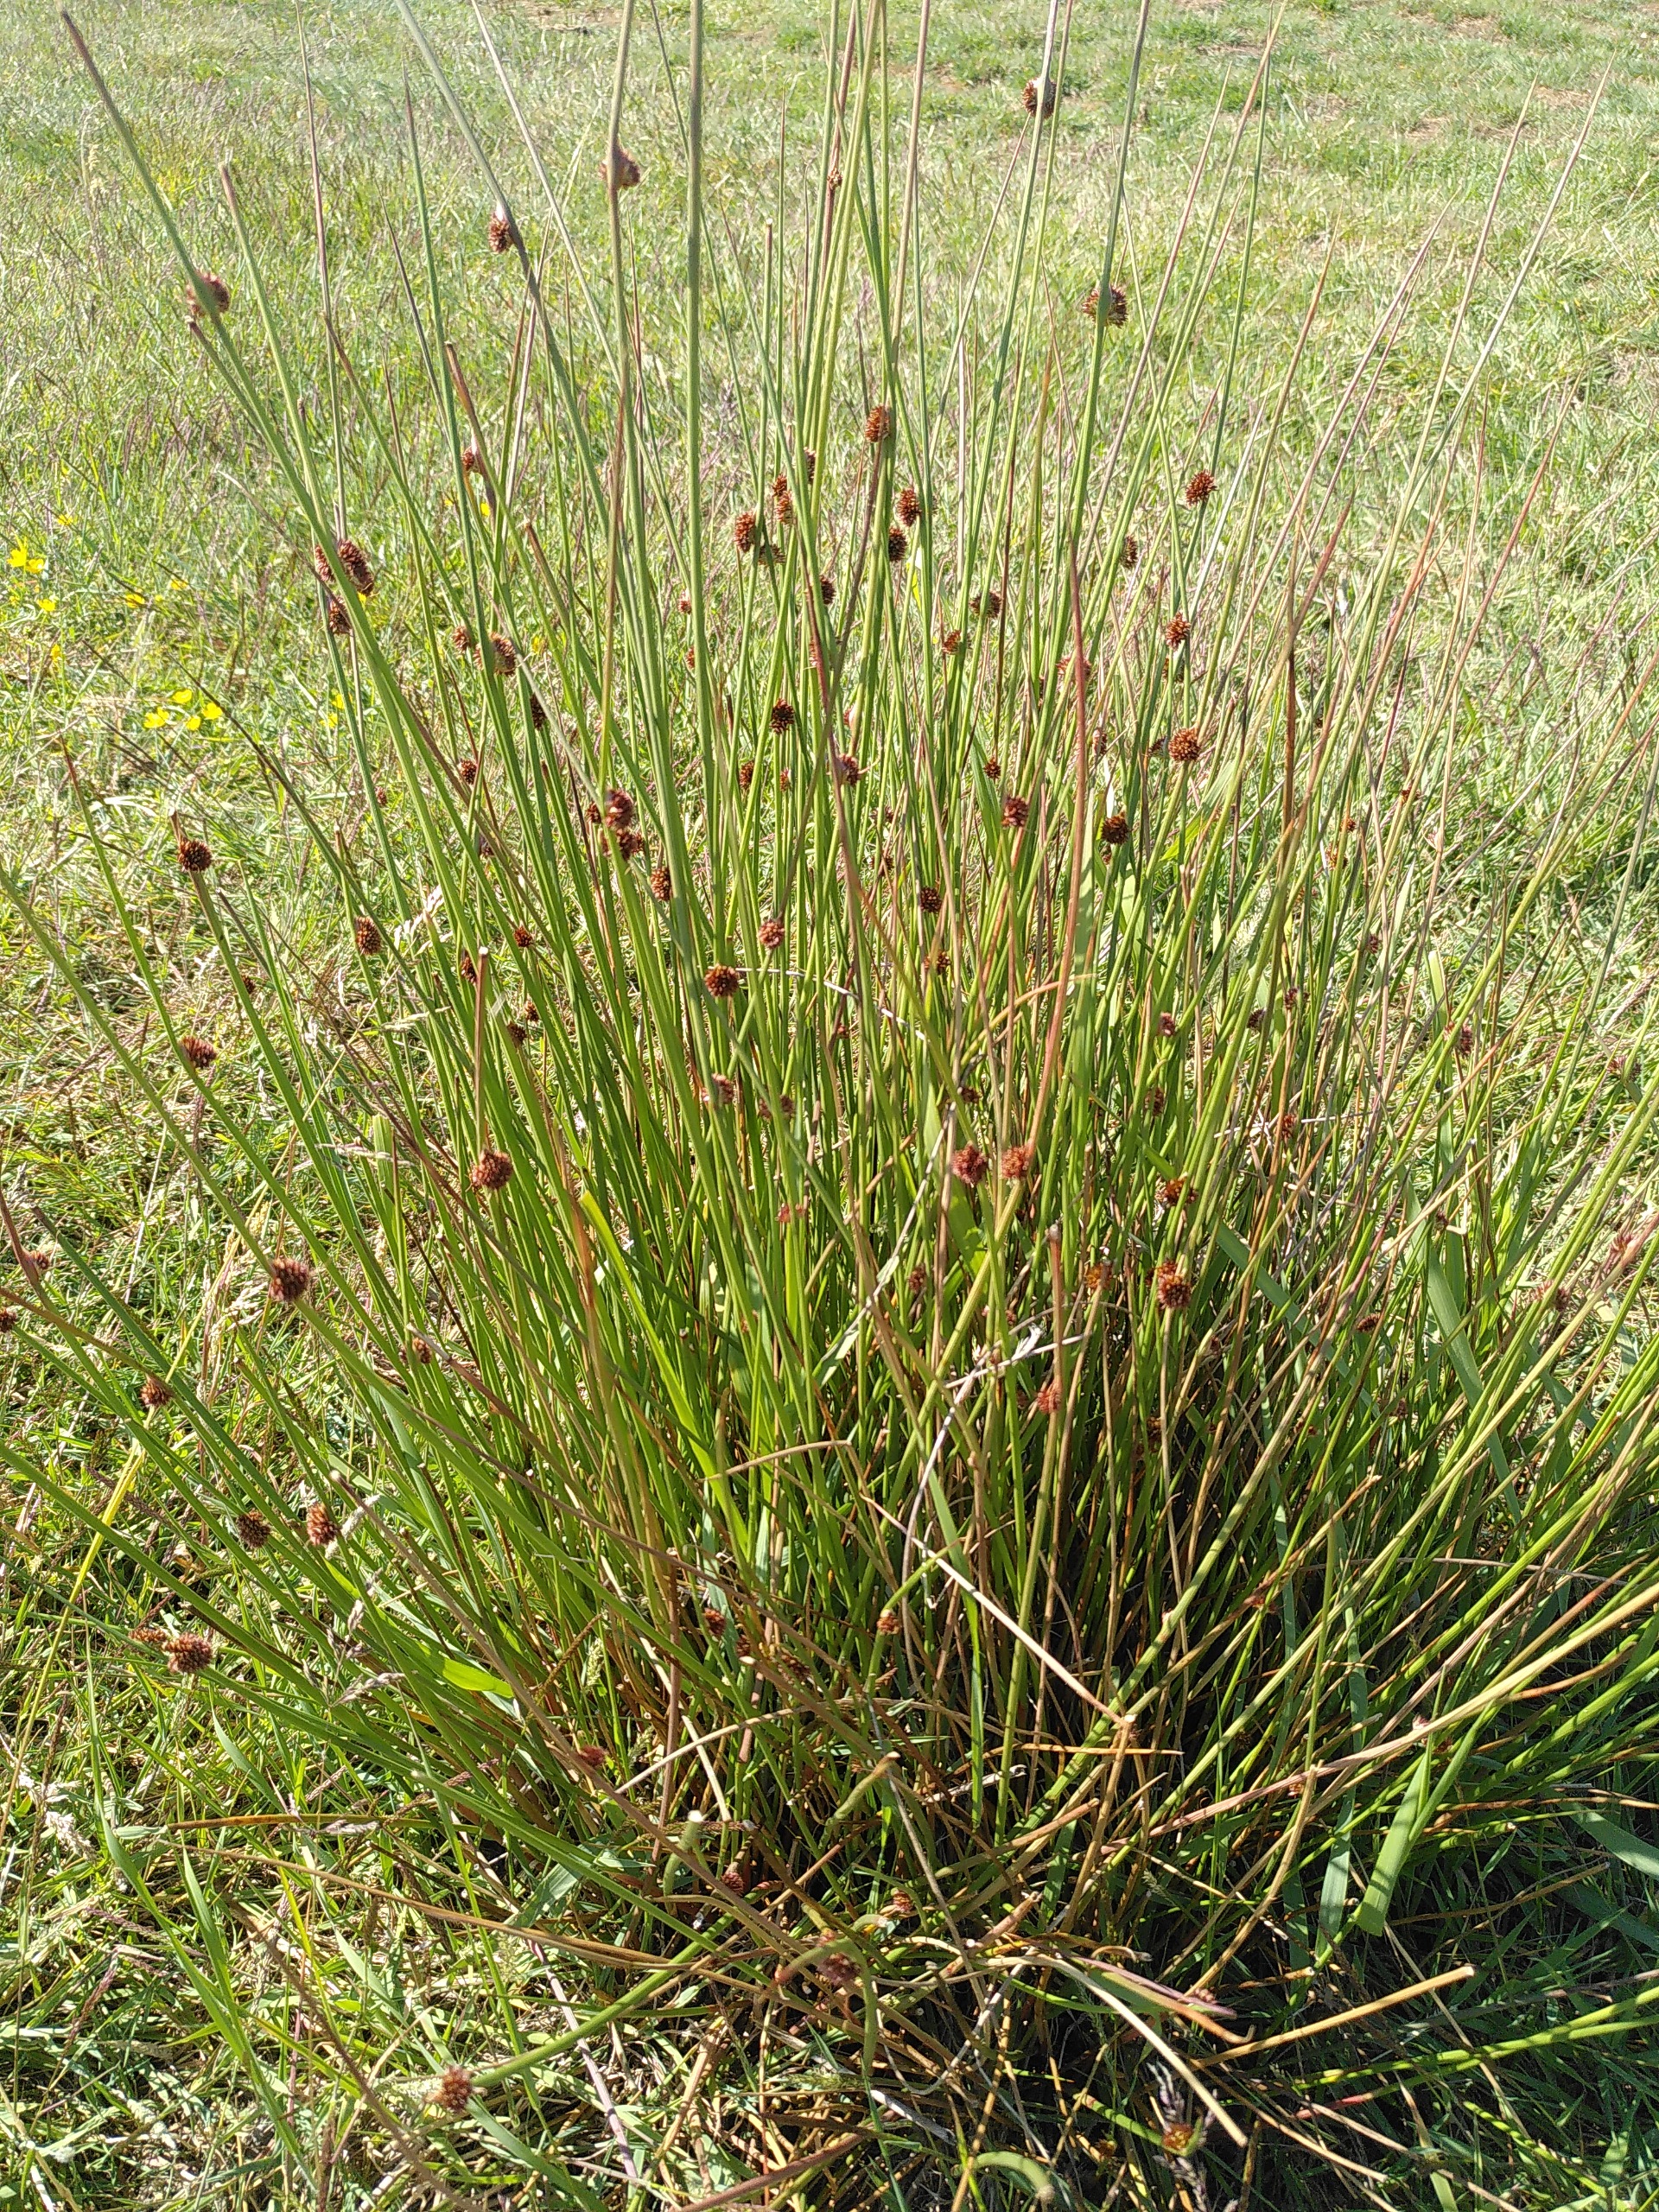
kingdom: Plantae
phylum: Tracheophyta
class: Liliopsida
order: Poales
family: Juncaceae
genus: Juncus
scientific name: Juncus conglomeratus
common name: Knop-siv
